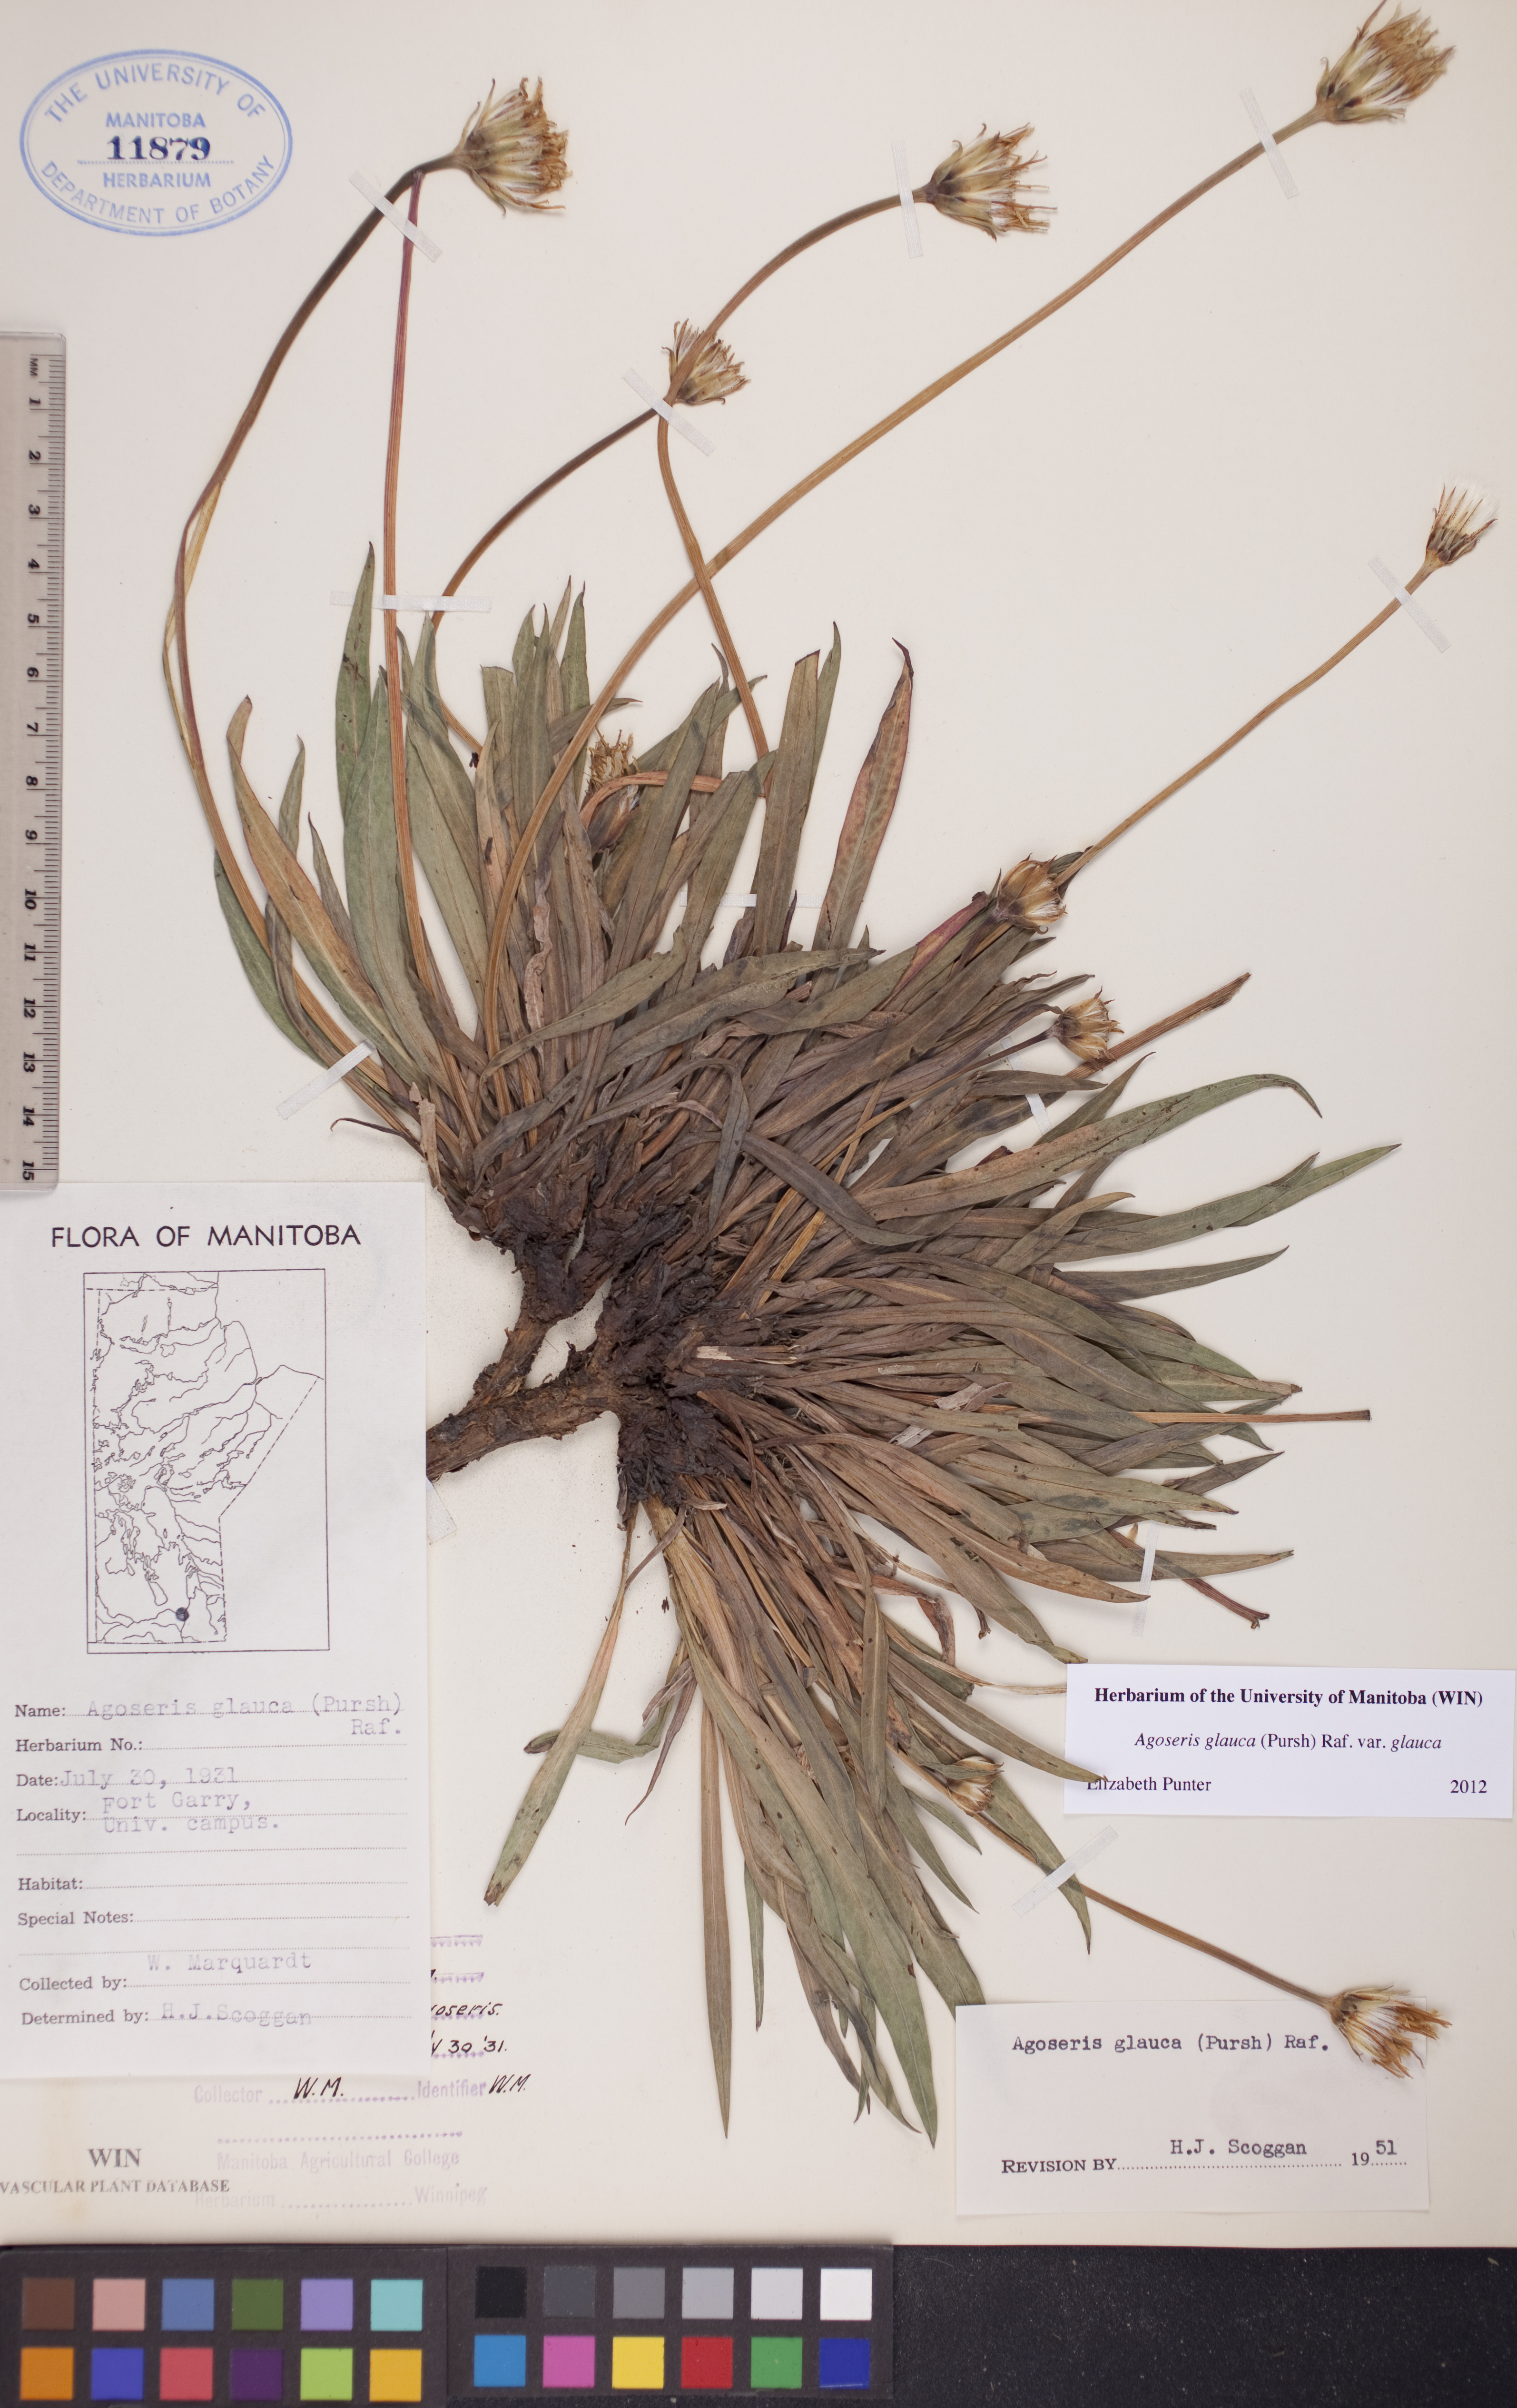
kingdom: Plantae
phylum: Tracheophyta
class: Magnoliopsida
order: Asterales
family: Asteraceae
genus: Agoseris
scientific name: Agoseris glauca
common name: Prairie agoseris
